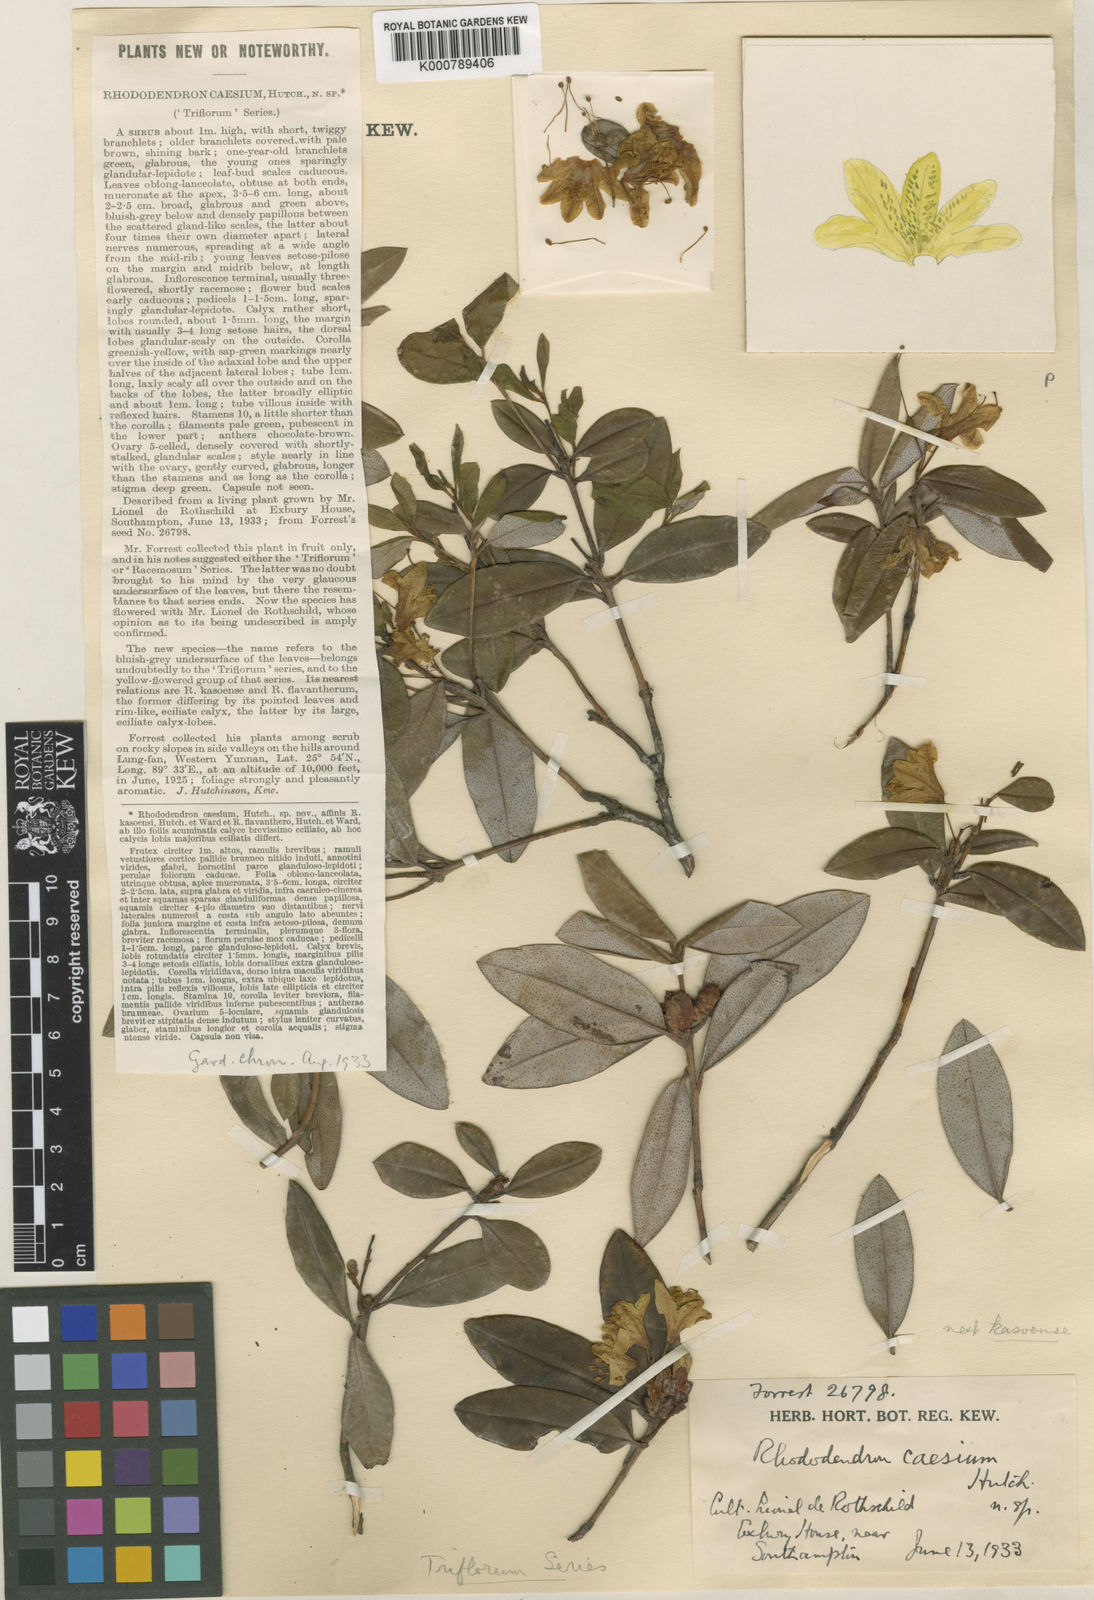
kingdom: Plantae
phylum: Tracheophyta
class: Magnoliopsida
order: Ericales
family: Ericaceae
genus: Rhododendron
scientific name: Rhododendron
